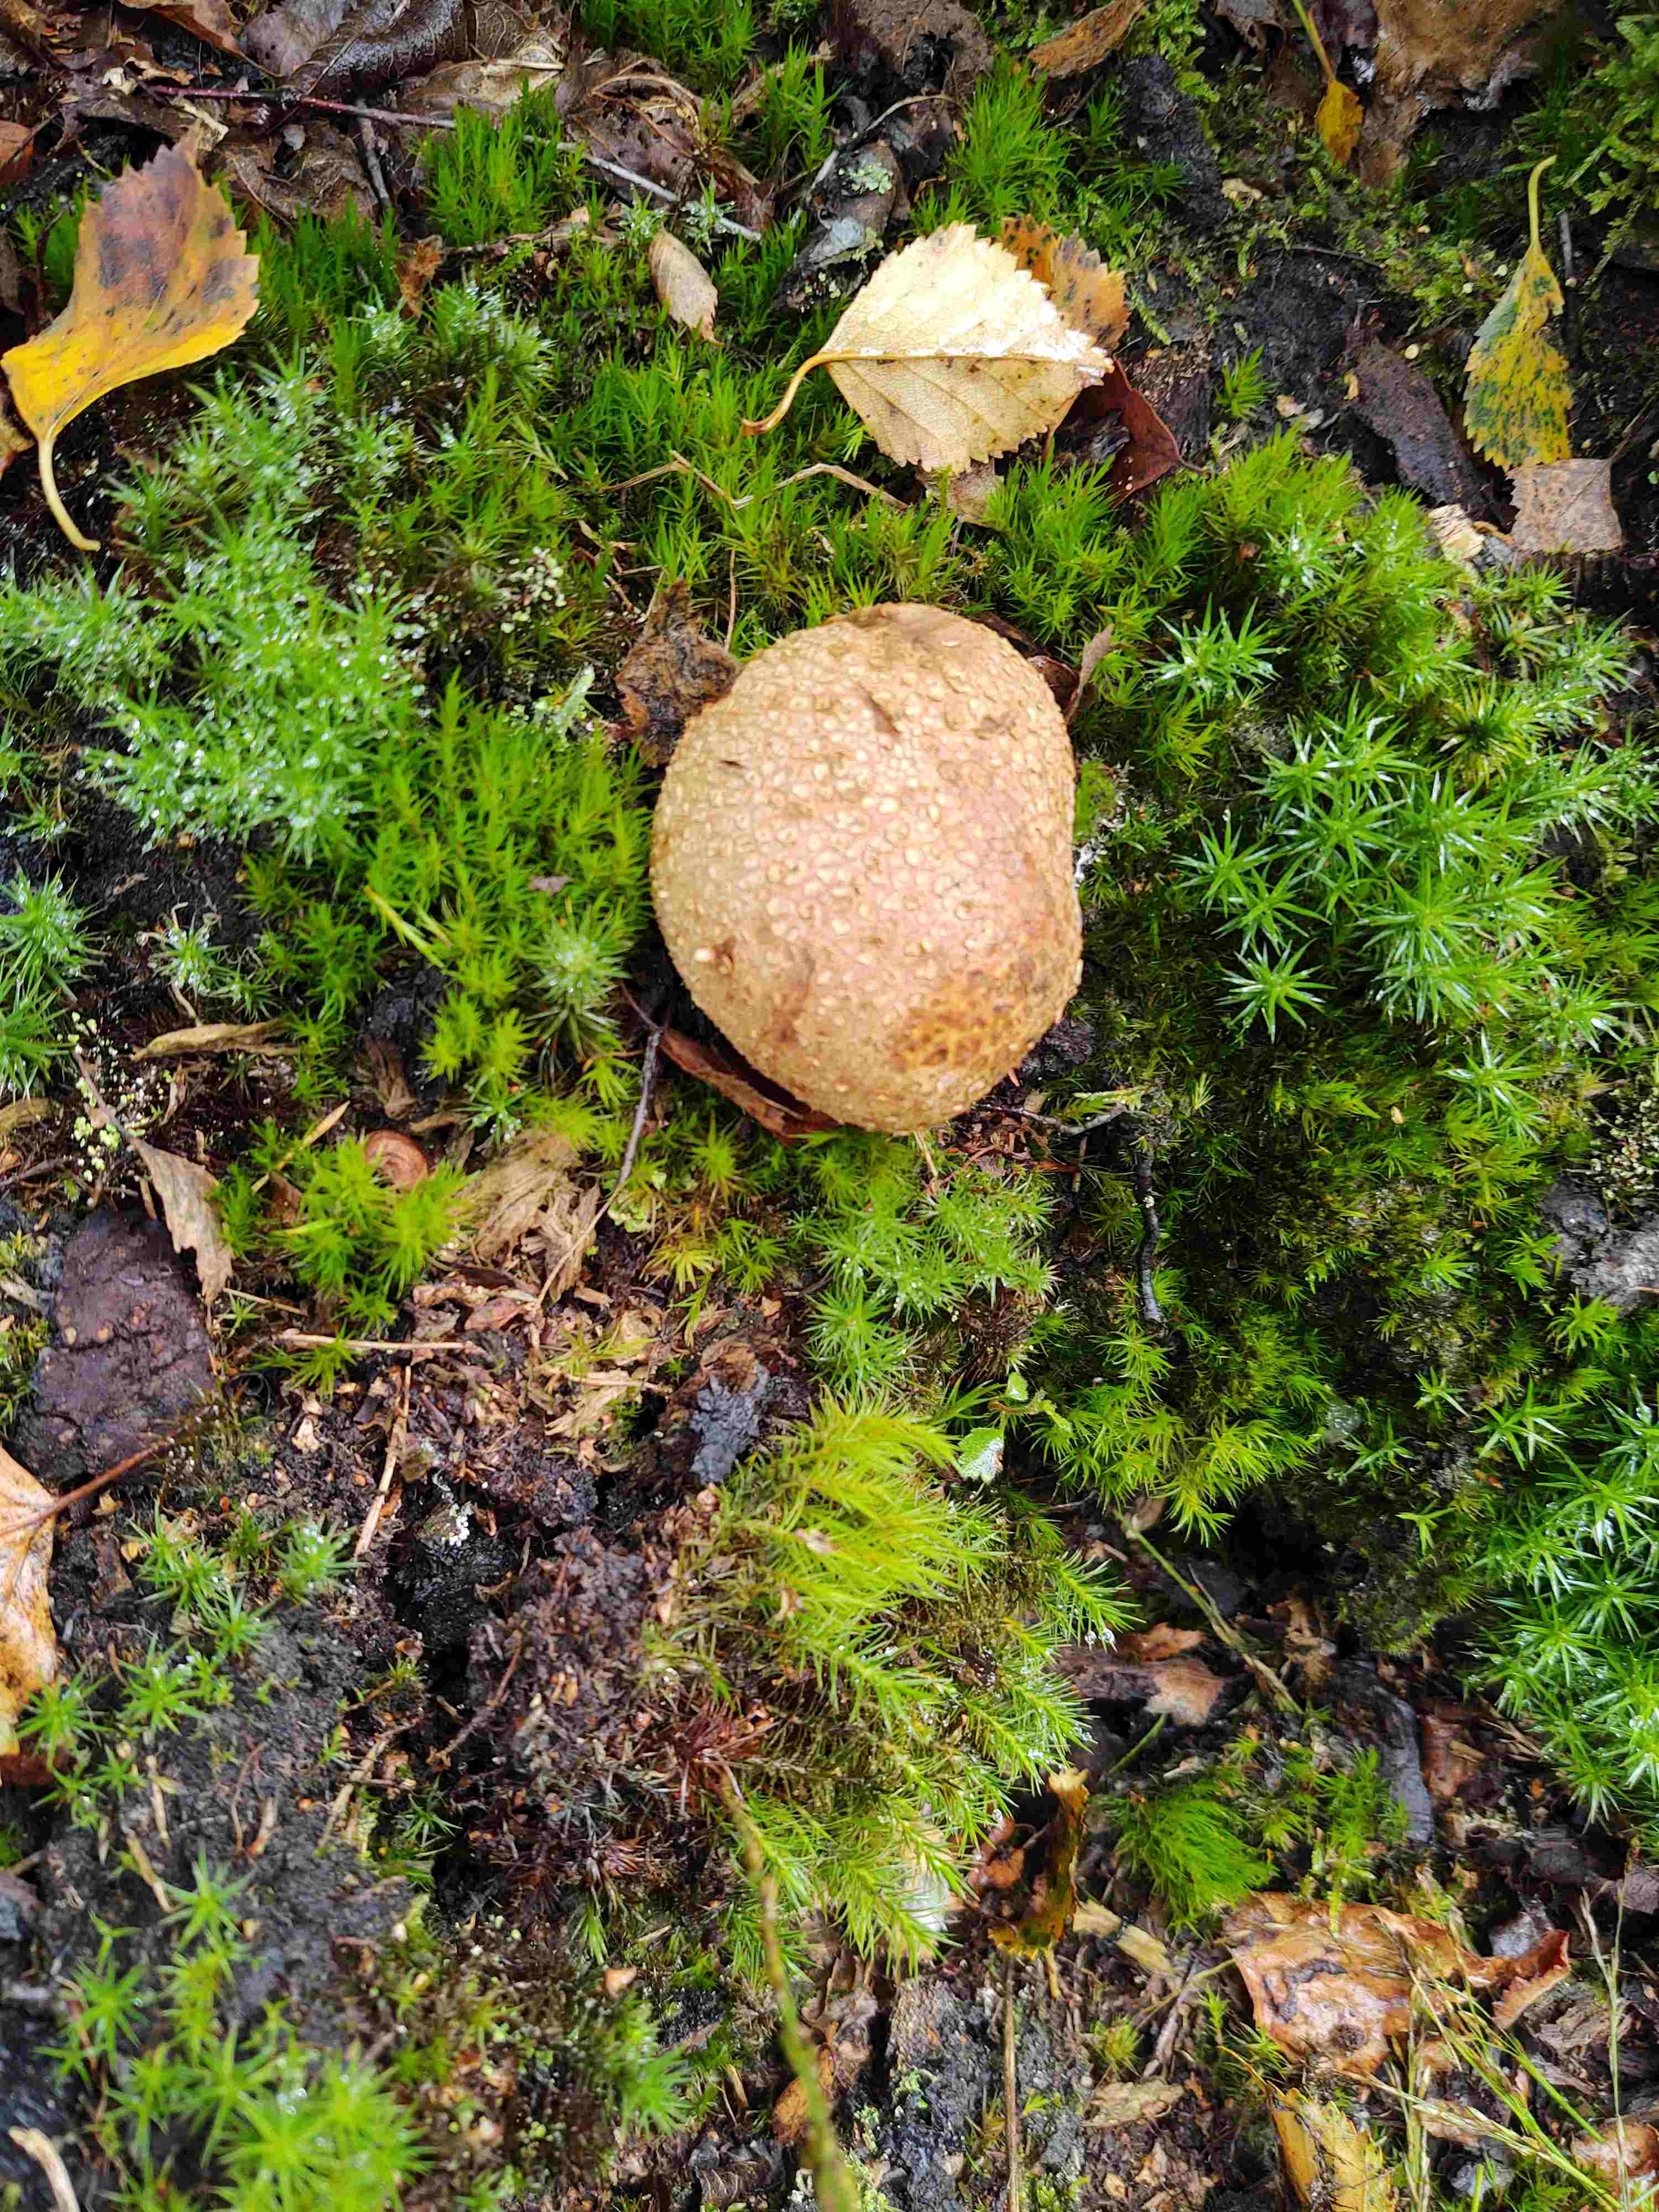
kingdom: Fungi
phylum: Basidiomycota
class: Agaricomycetes
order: Boletales
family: Sclerodermataceae
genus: Scleroderma
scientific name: Scleroderma citrinum
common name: almindelig bruskbold
